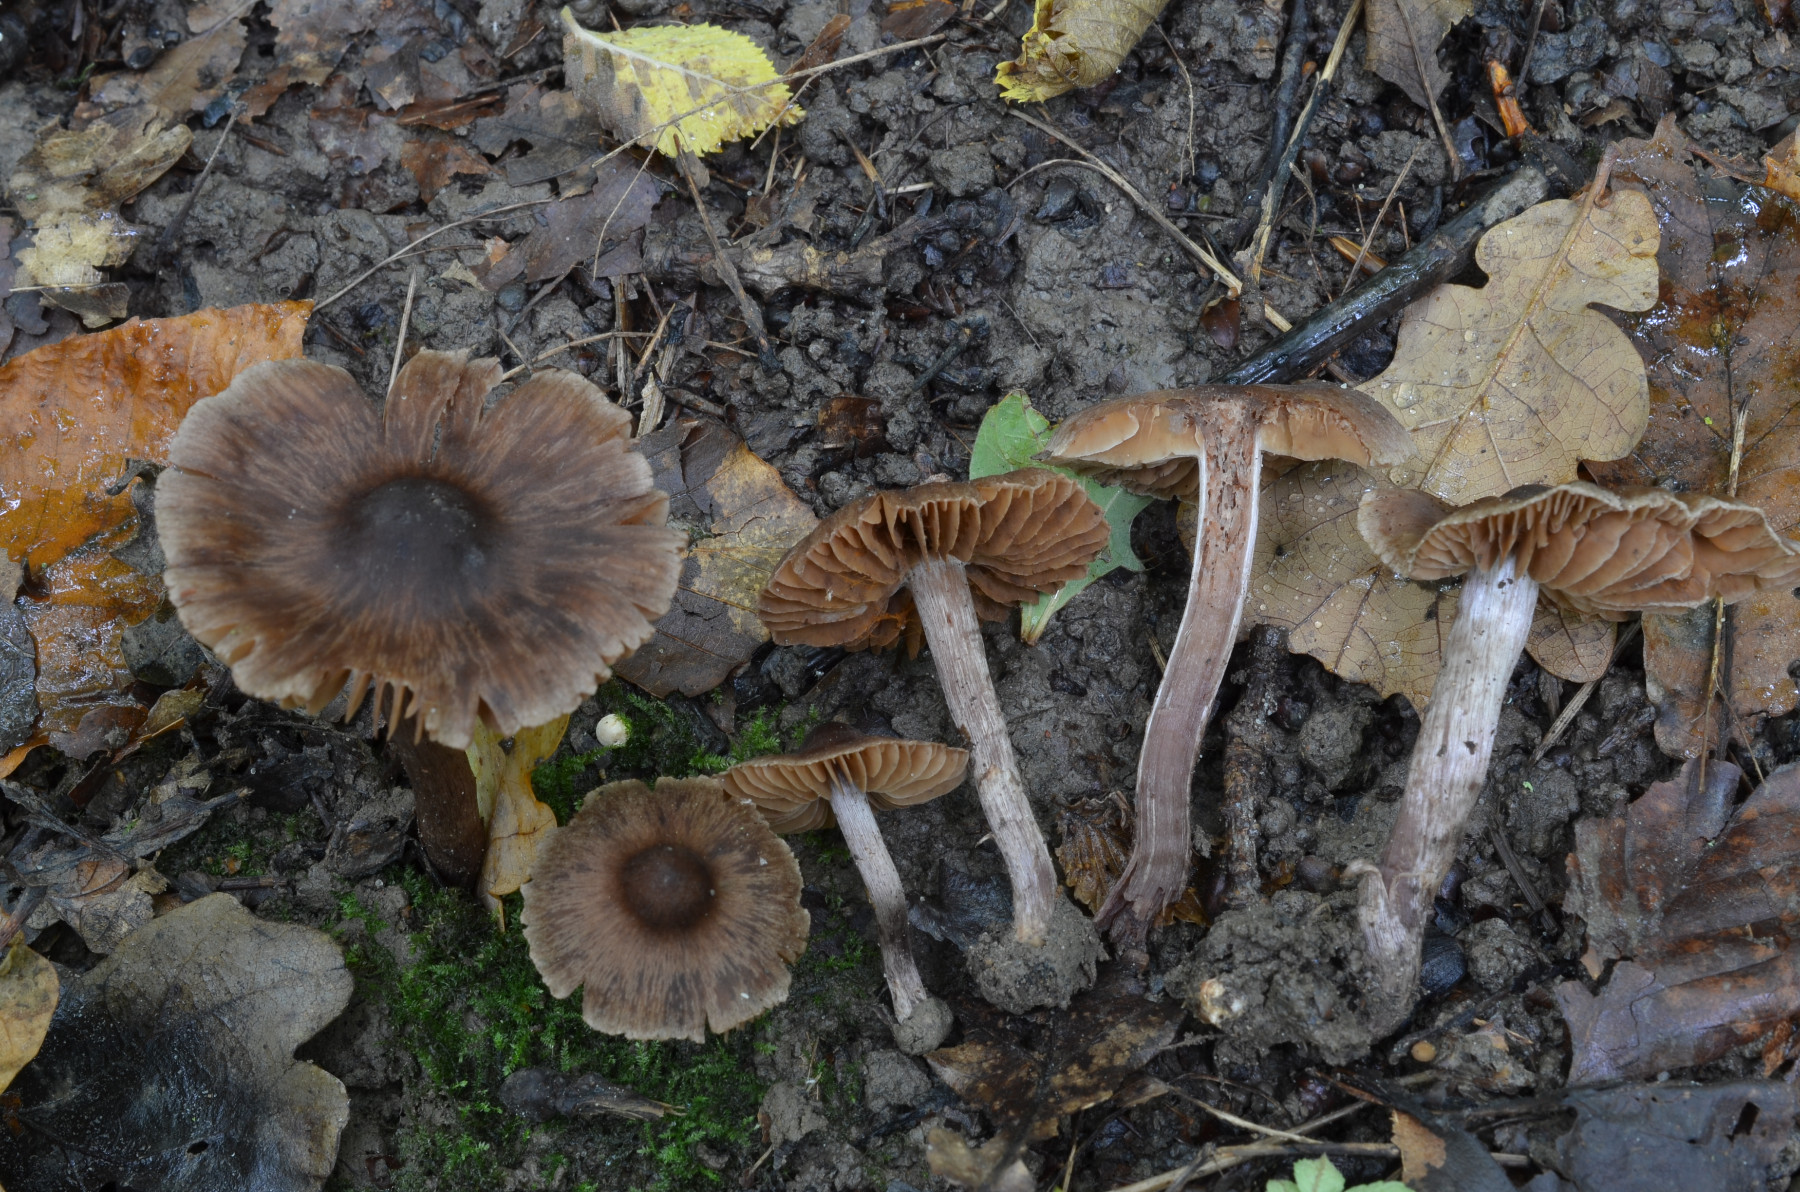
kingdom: Fungi
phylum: Basidiomycota
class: Agaricomycetes
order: Agaricales
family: Cortinariaceae
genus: Cortinarius
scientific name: Cortinarius caliginosus
